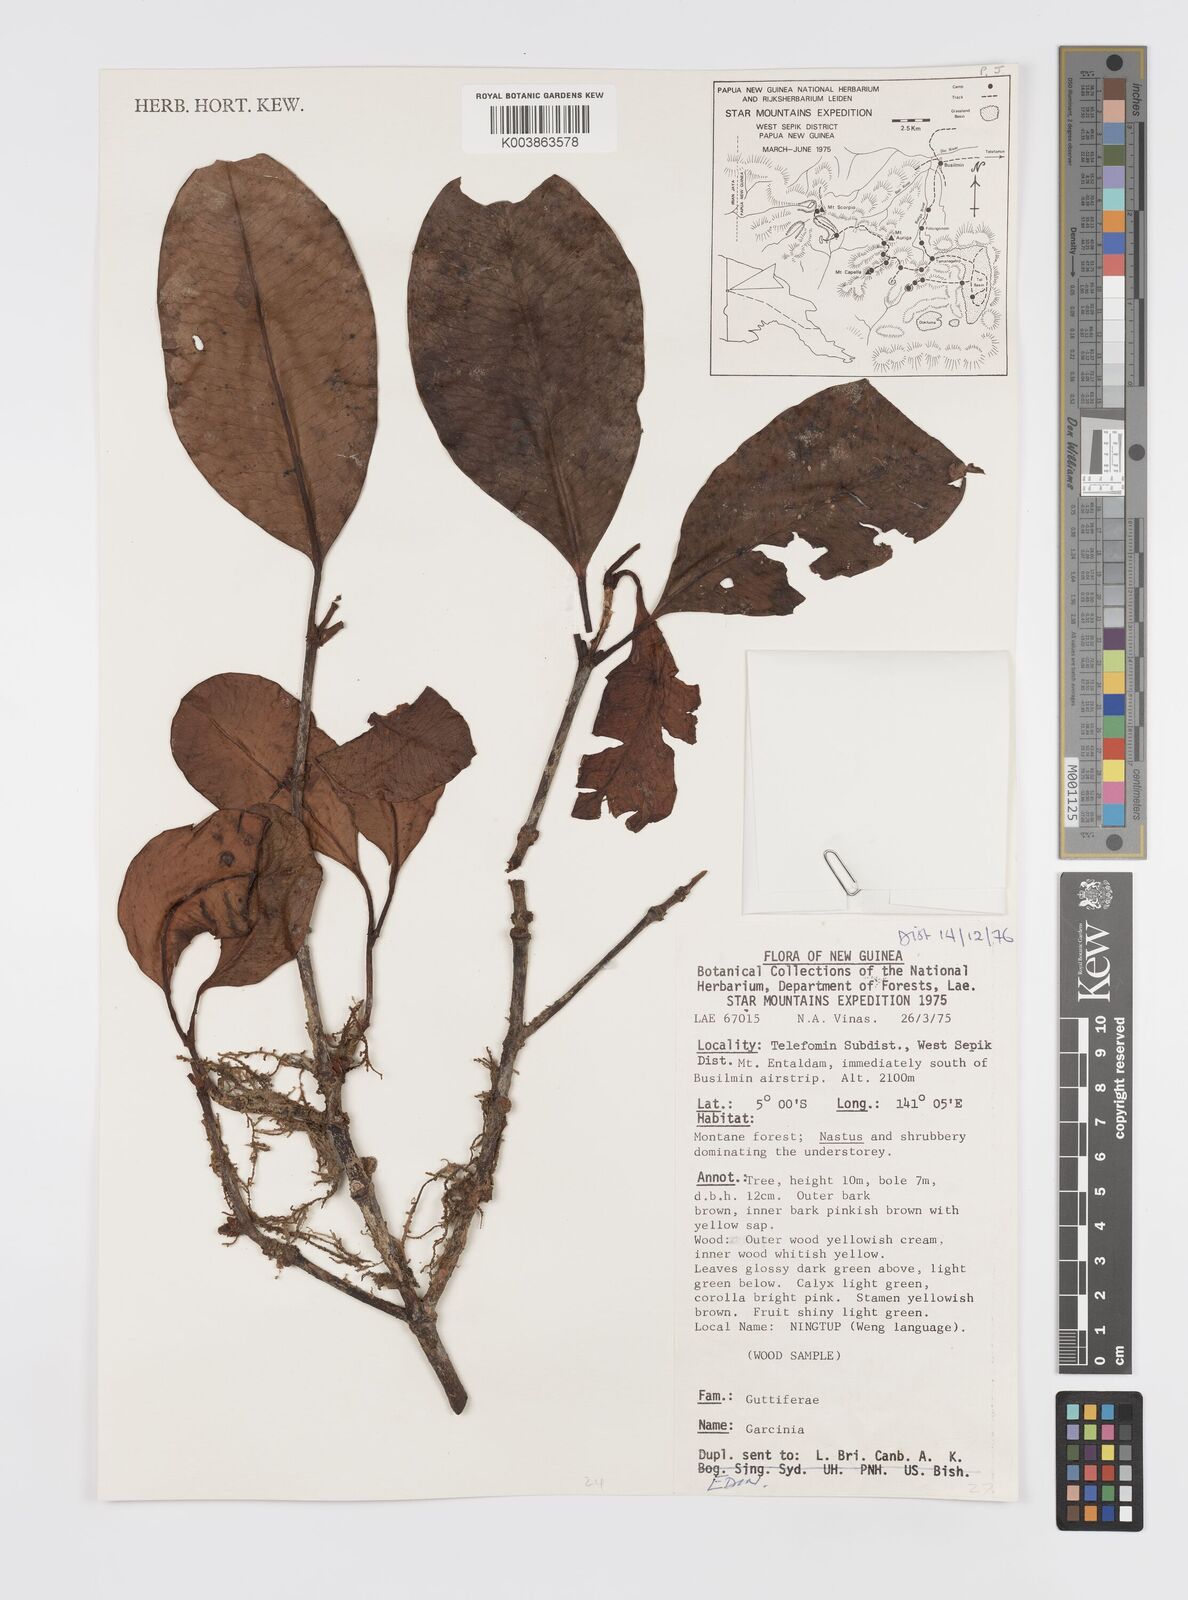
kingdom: Plantae
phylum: Tracheophyta
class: Magnoliopsida
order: Malpighiales
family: Clusiaceae
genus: Garcinia
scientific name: Garcinia
